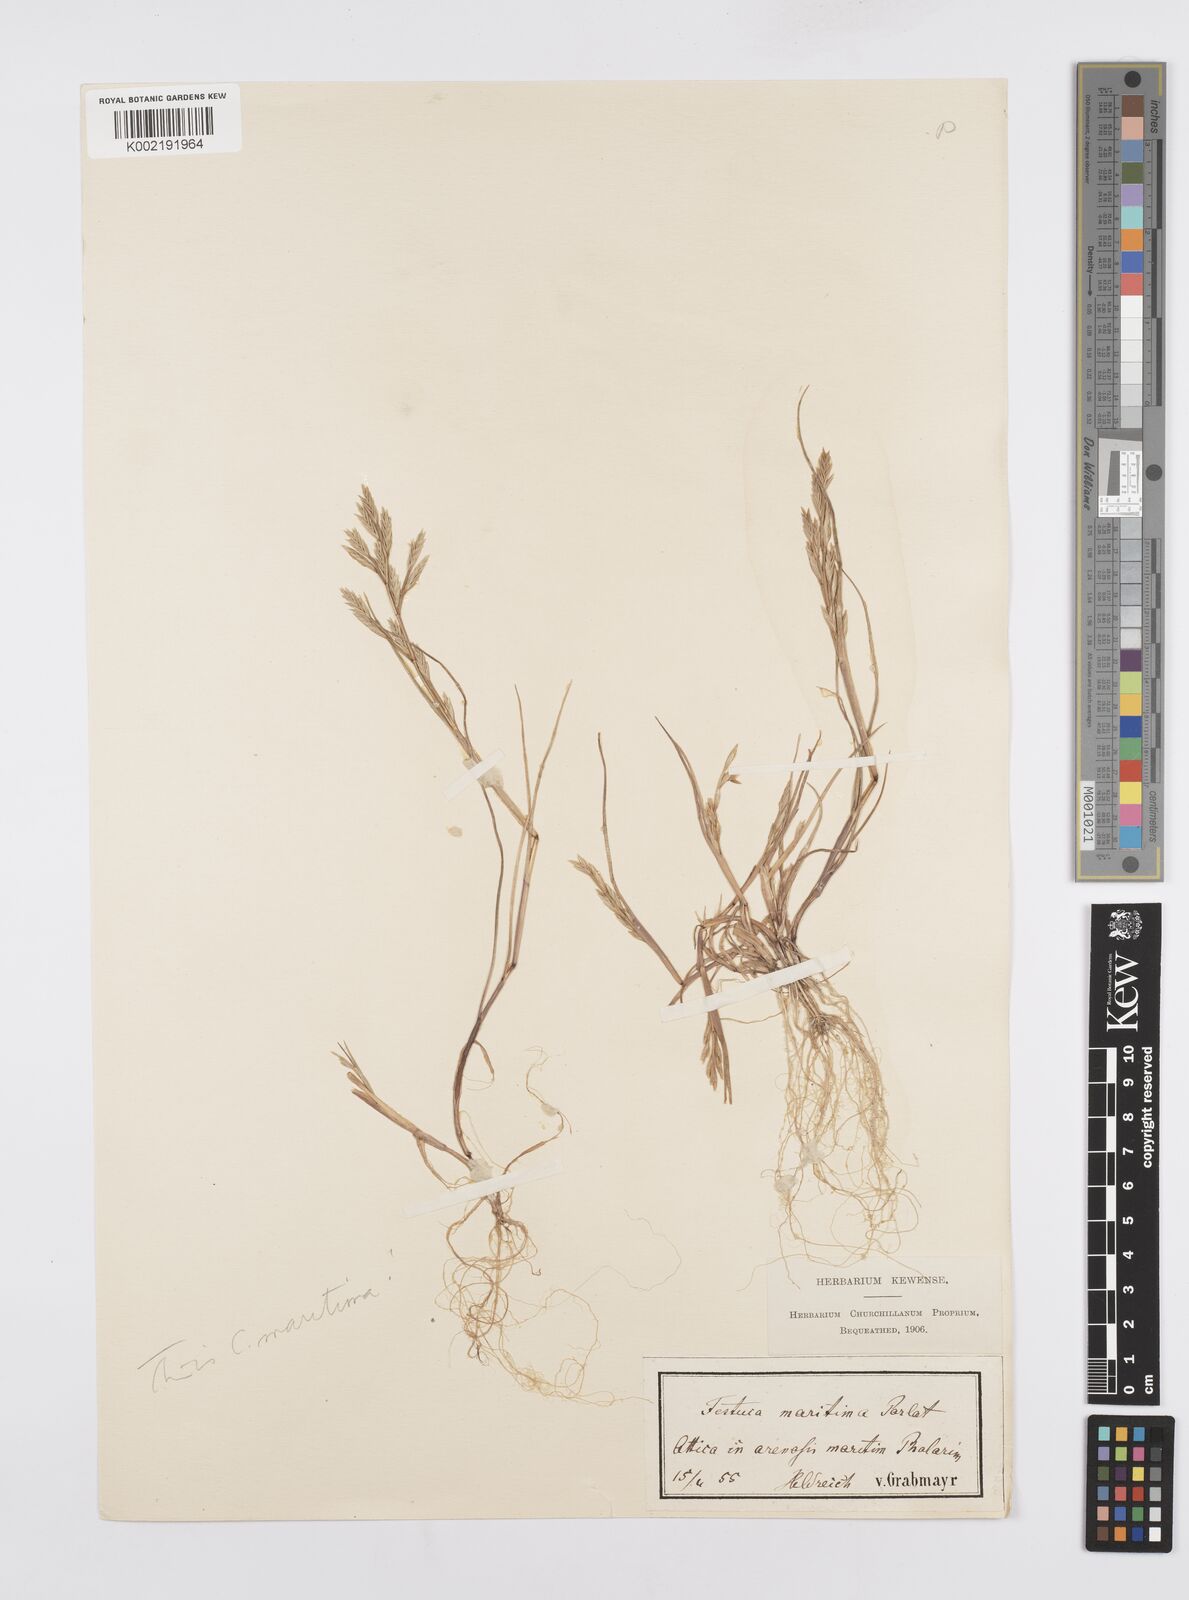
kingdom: Plantae
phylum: Tracheophyta
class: Liliopsida
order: Poales
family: Poaceae
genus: Cutandia
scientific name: Cutandia maritima
